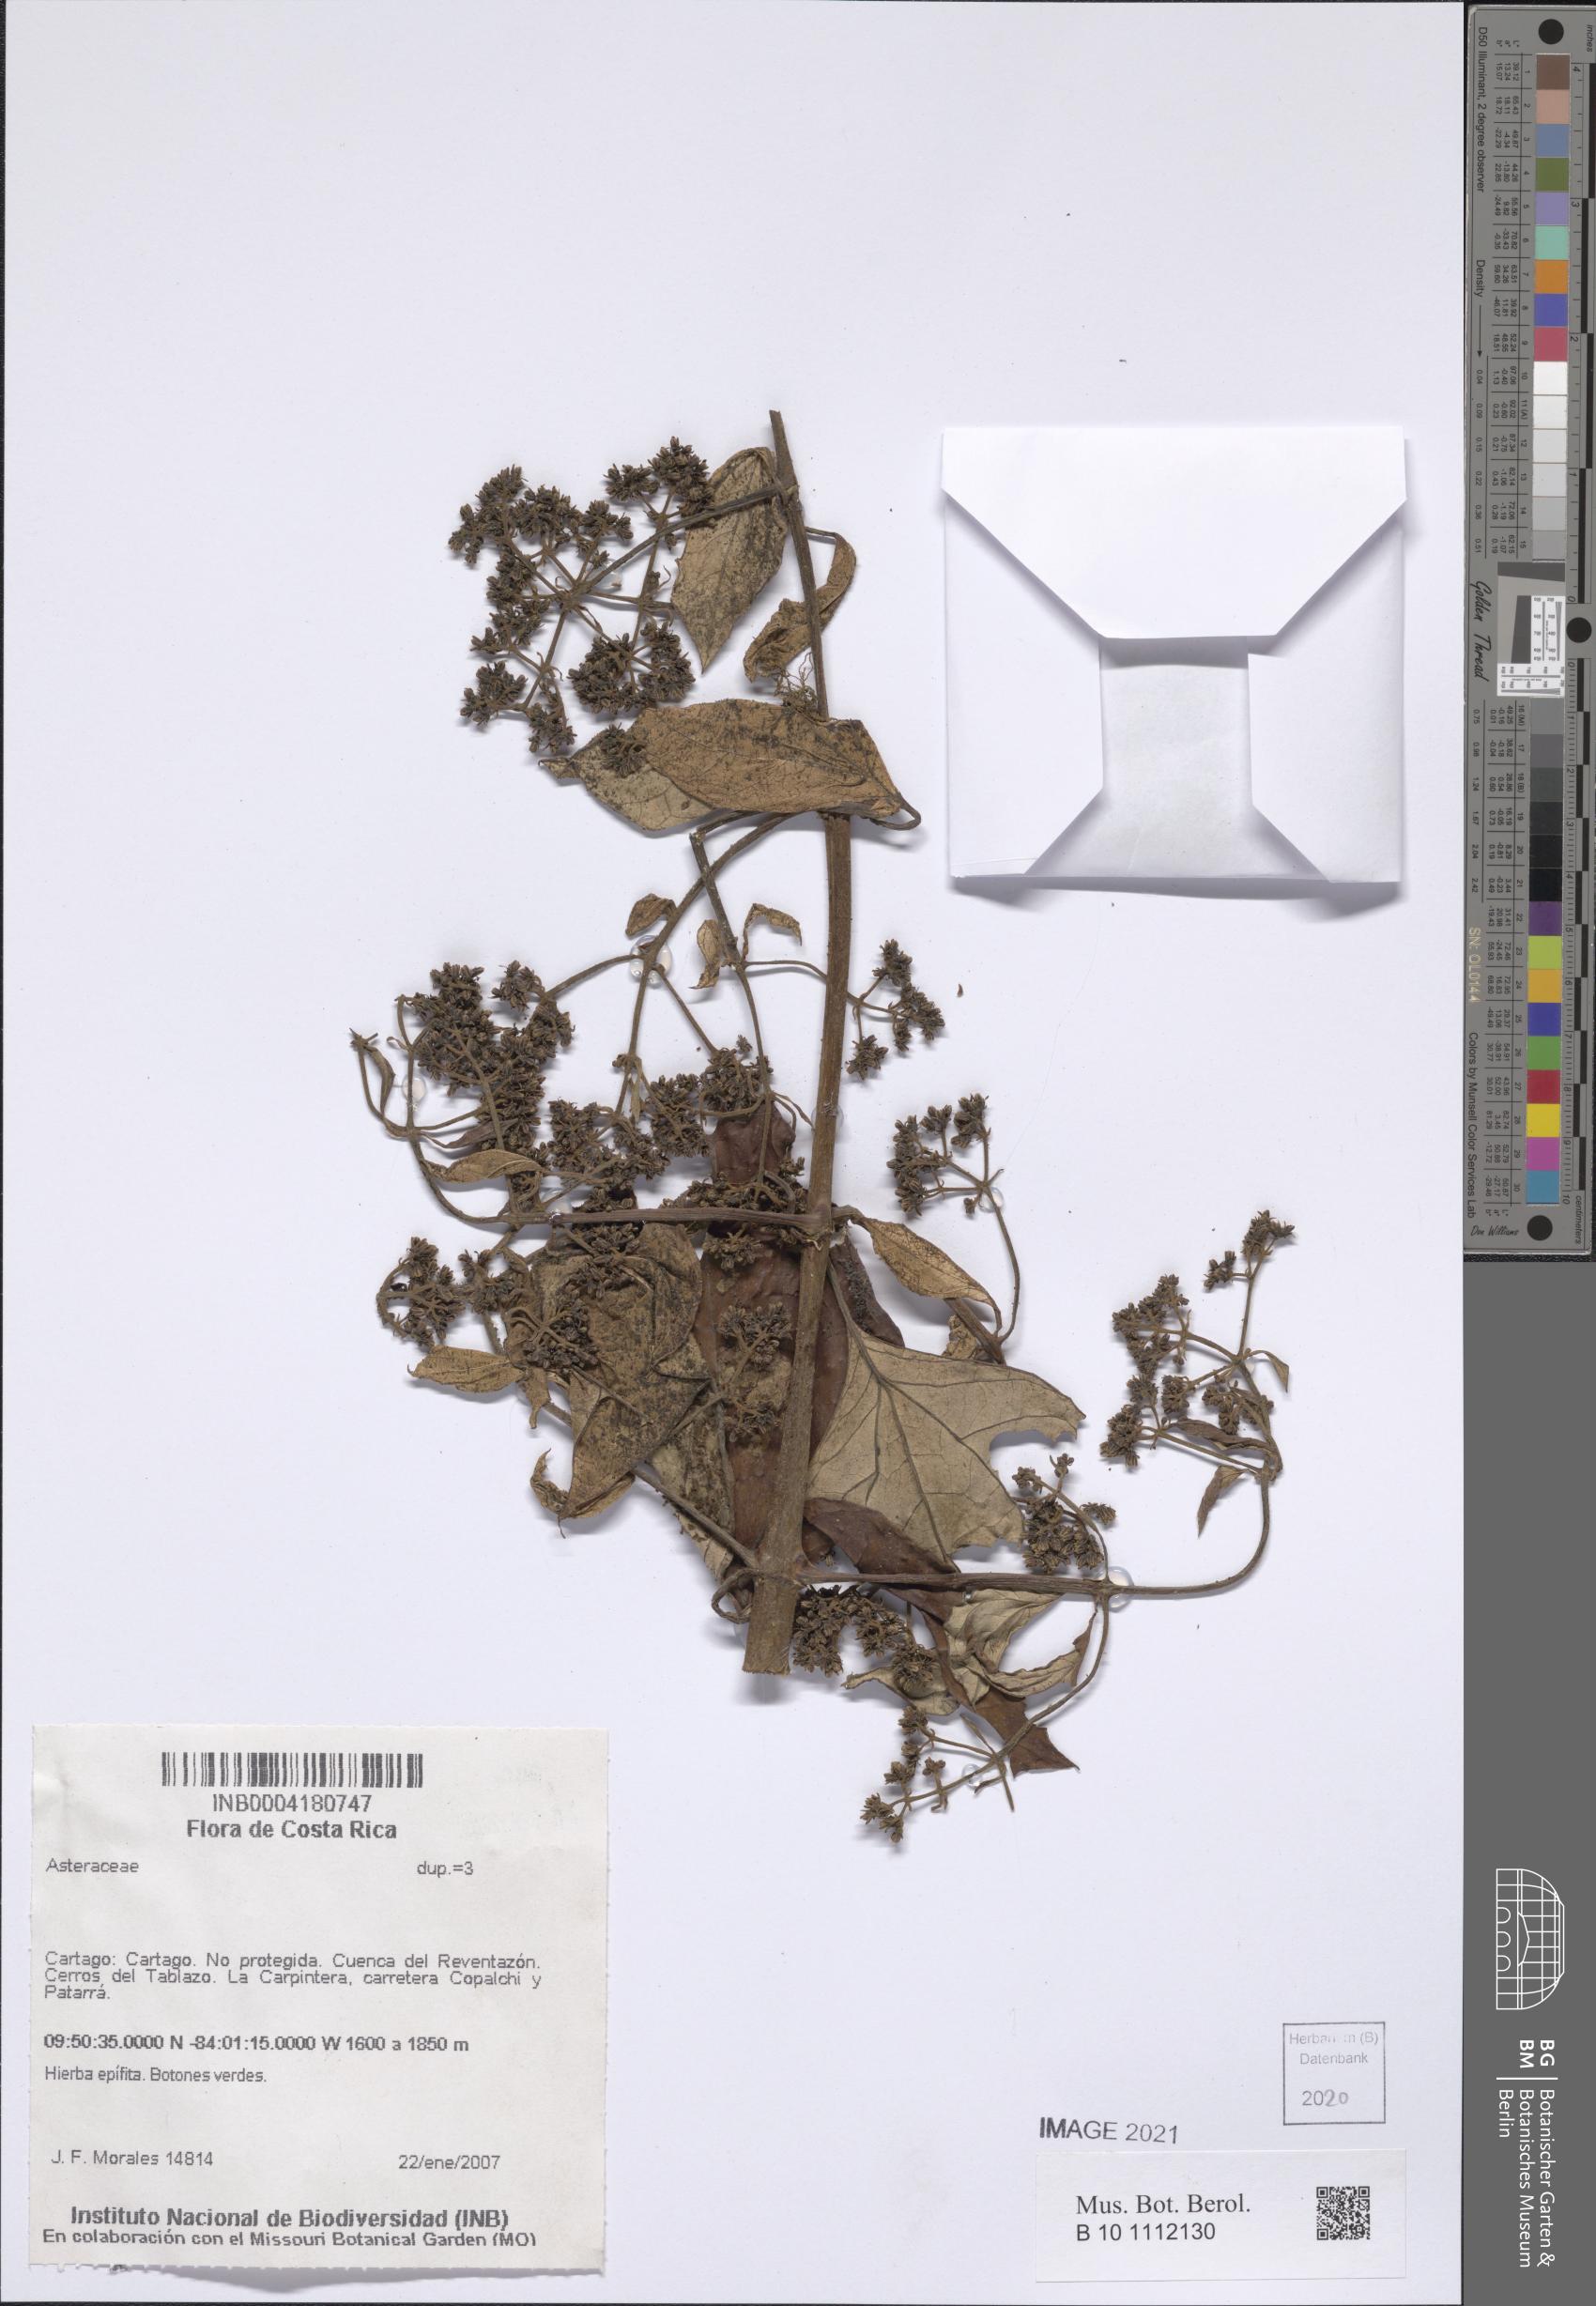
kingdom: Plantae
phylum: Tracheophyta
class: Magnoliopsida
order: Asterales
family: Asteraceae
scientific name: Asteraceae
